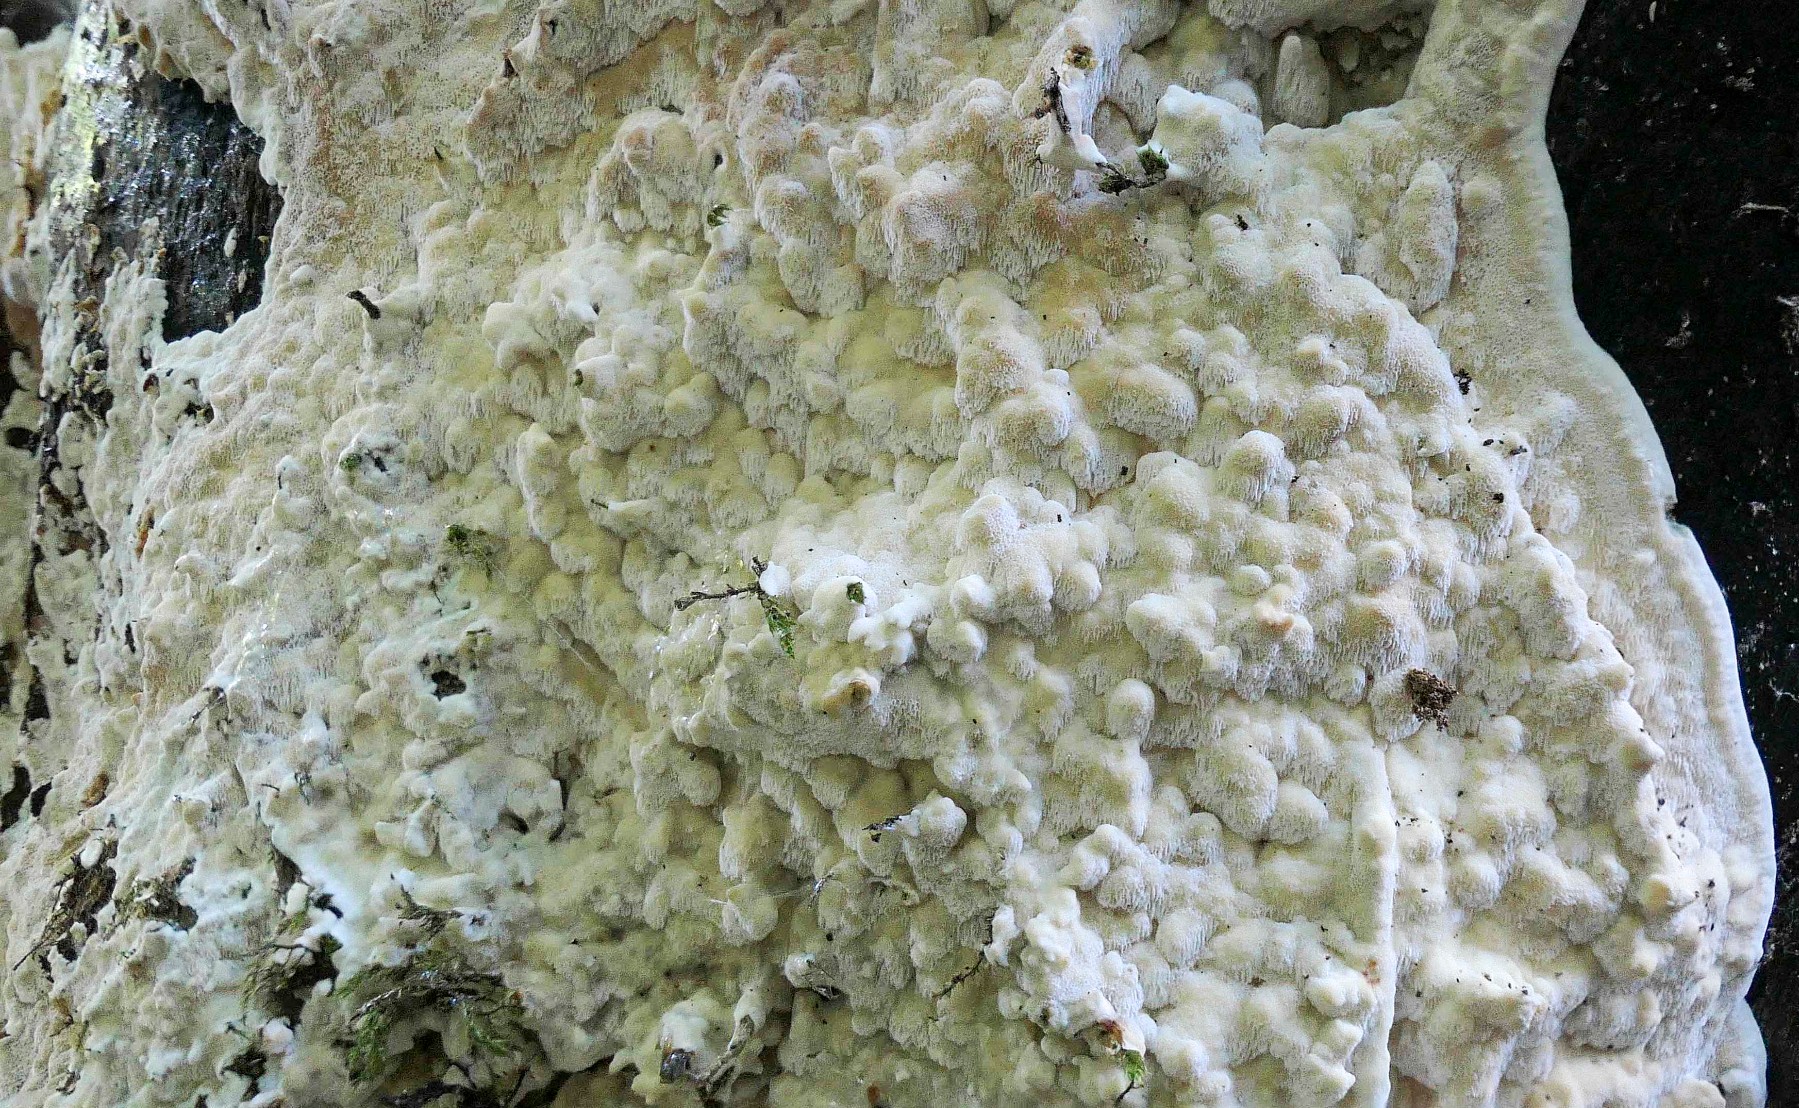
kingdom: Fungi
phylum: Basidiomycota
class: Agaricomycetes
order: Polyporales
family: Meruliaceae
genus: Physisporinus
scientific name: Physisporinus vitreus
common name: mastesvamp
